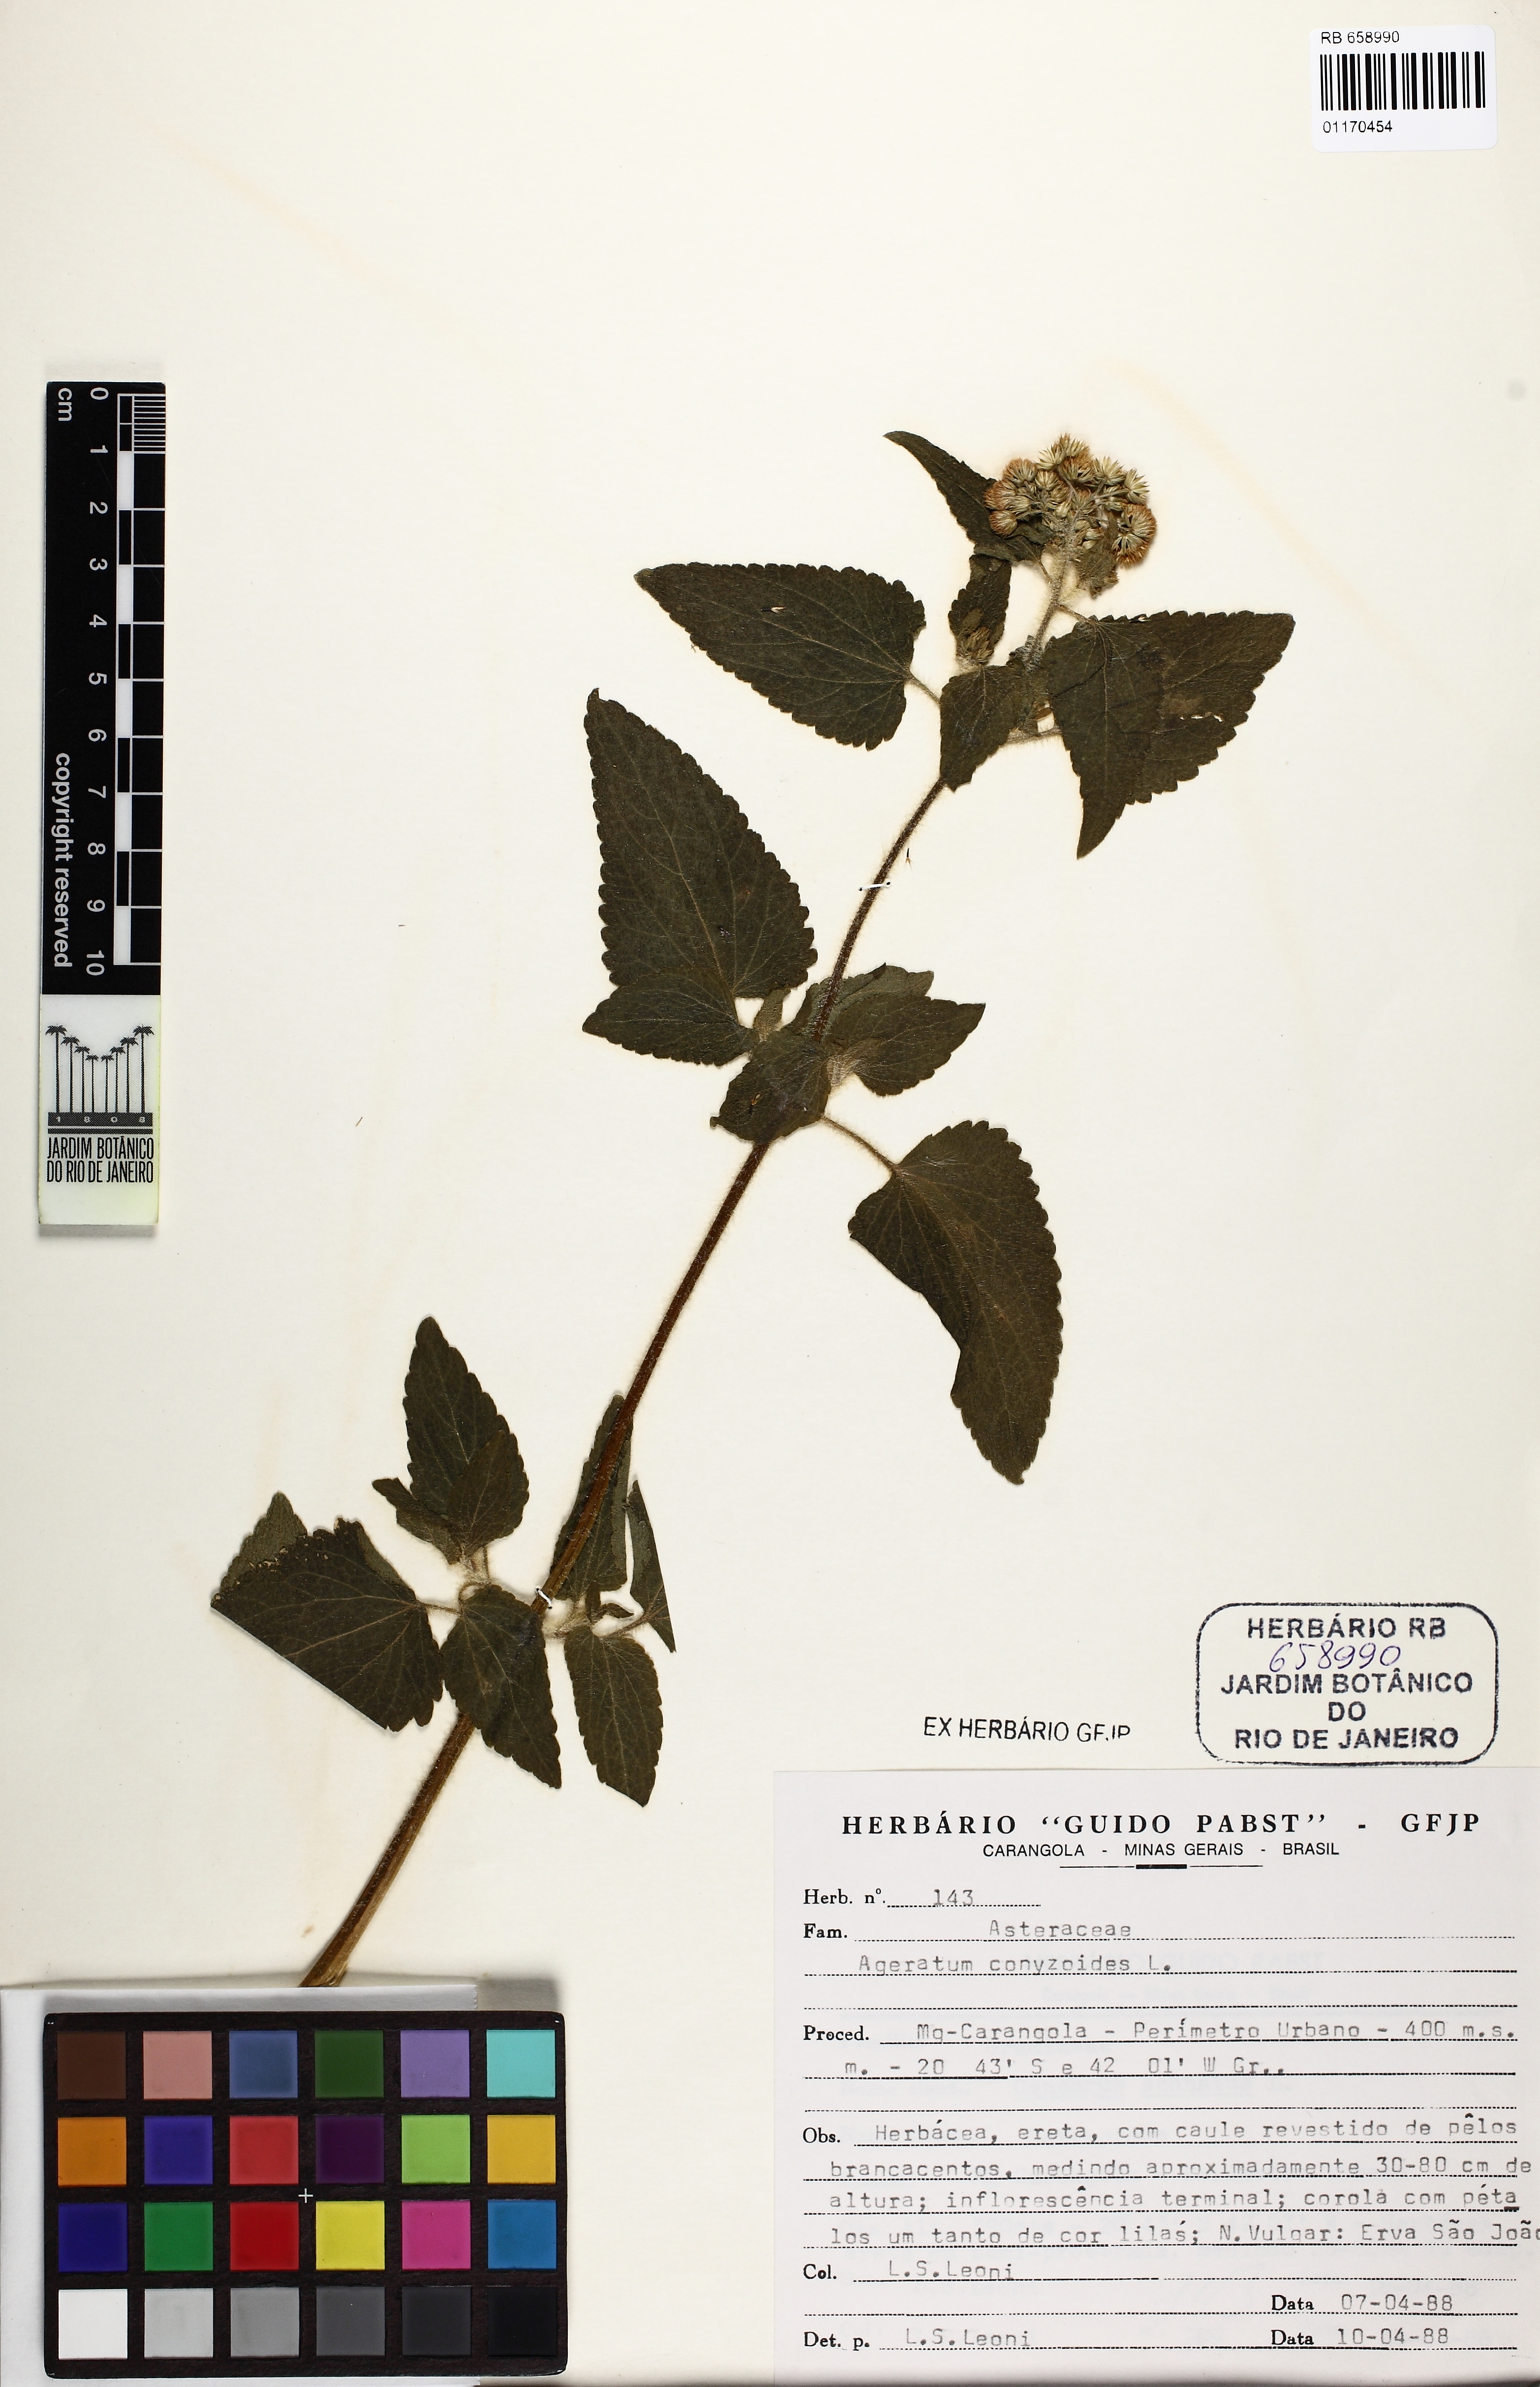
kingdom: Plantae
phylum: Tracheophyta
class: Magnoliopsida
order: Asterales
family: Asteraceae
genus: Ageratum
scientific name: Ageratum conyzoides
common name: Tropical whiteweed
